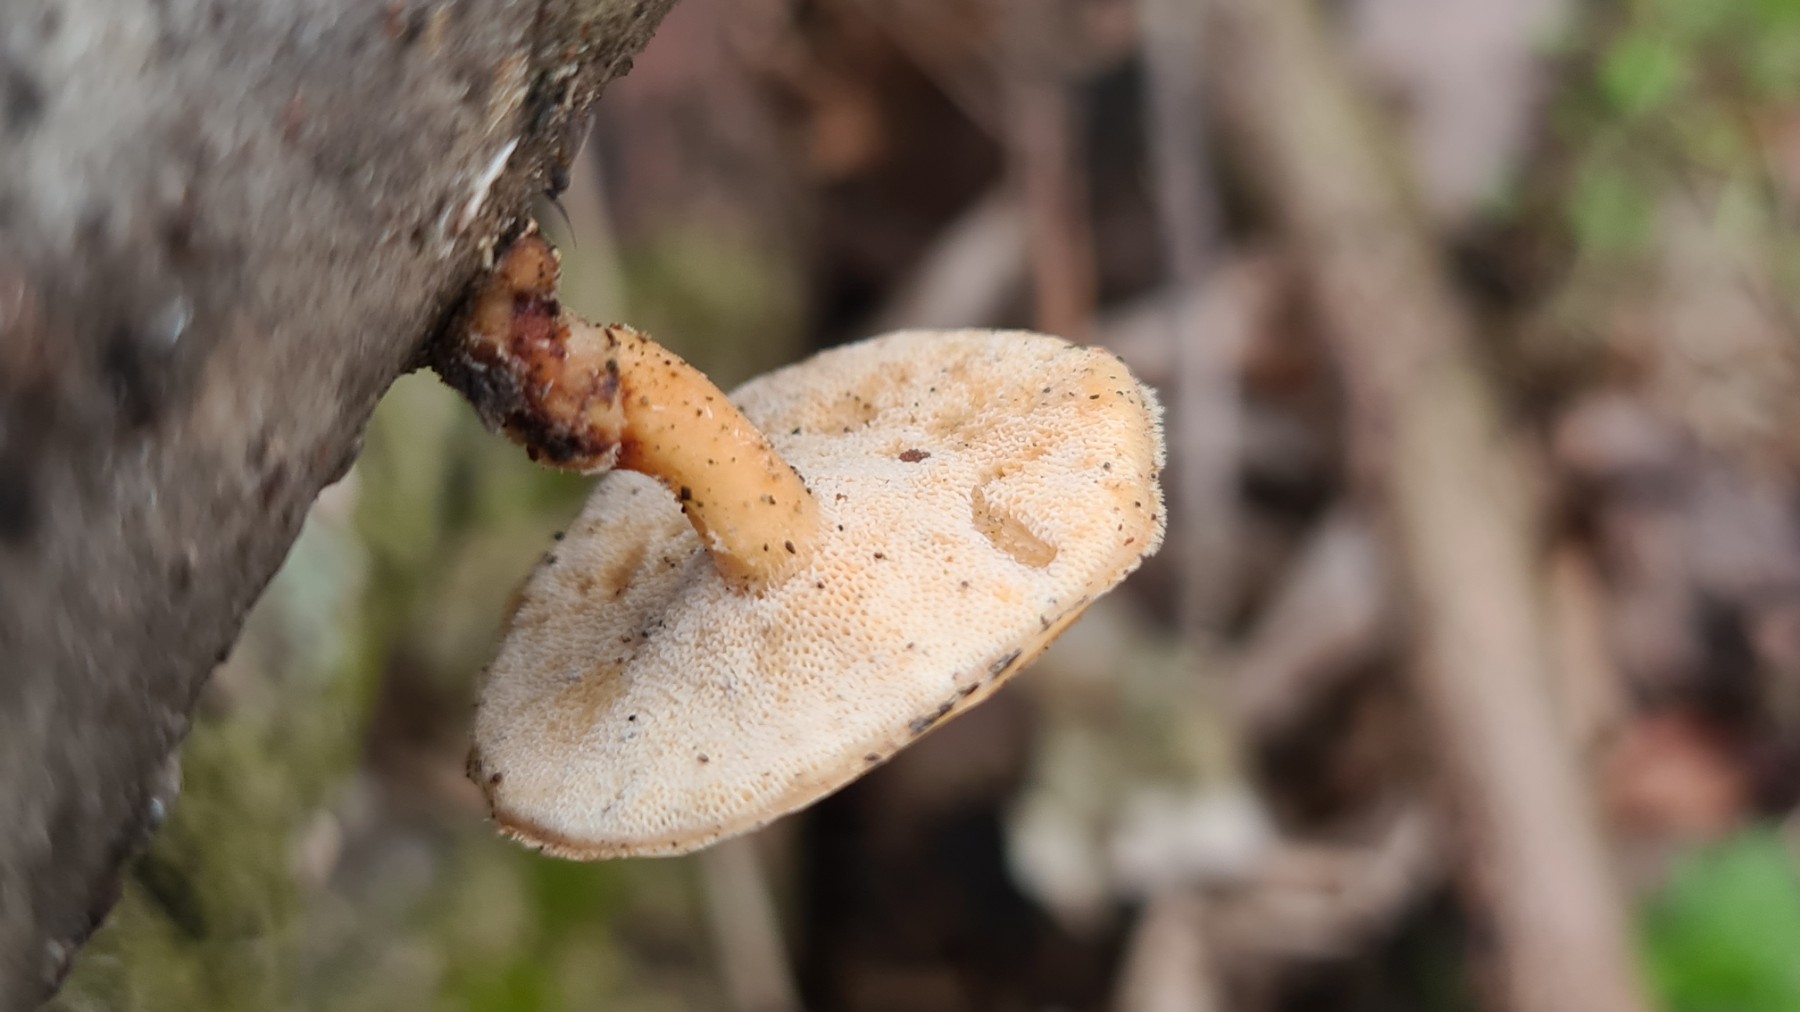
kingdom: Fungi
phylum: Basidiomycota
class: Agaricomycetes
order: Polyporales
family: Polyporaceae
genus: Lentinus
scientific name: Lentinus brumalis
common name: vinter-stilkporesvamp
